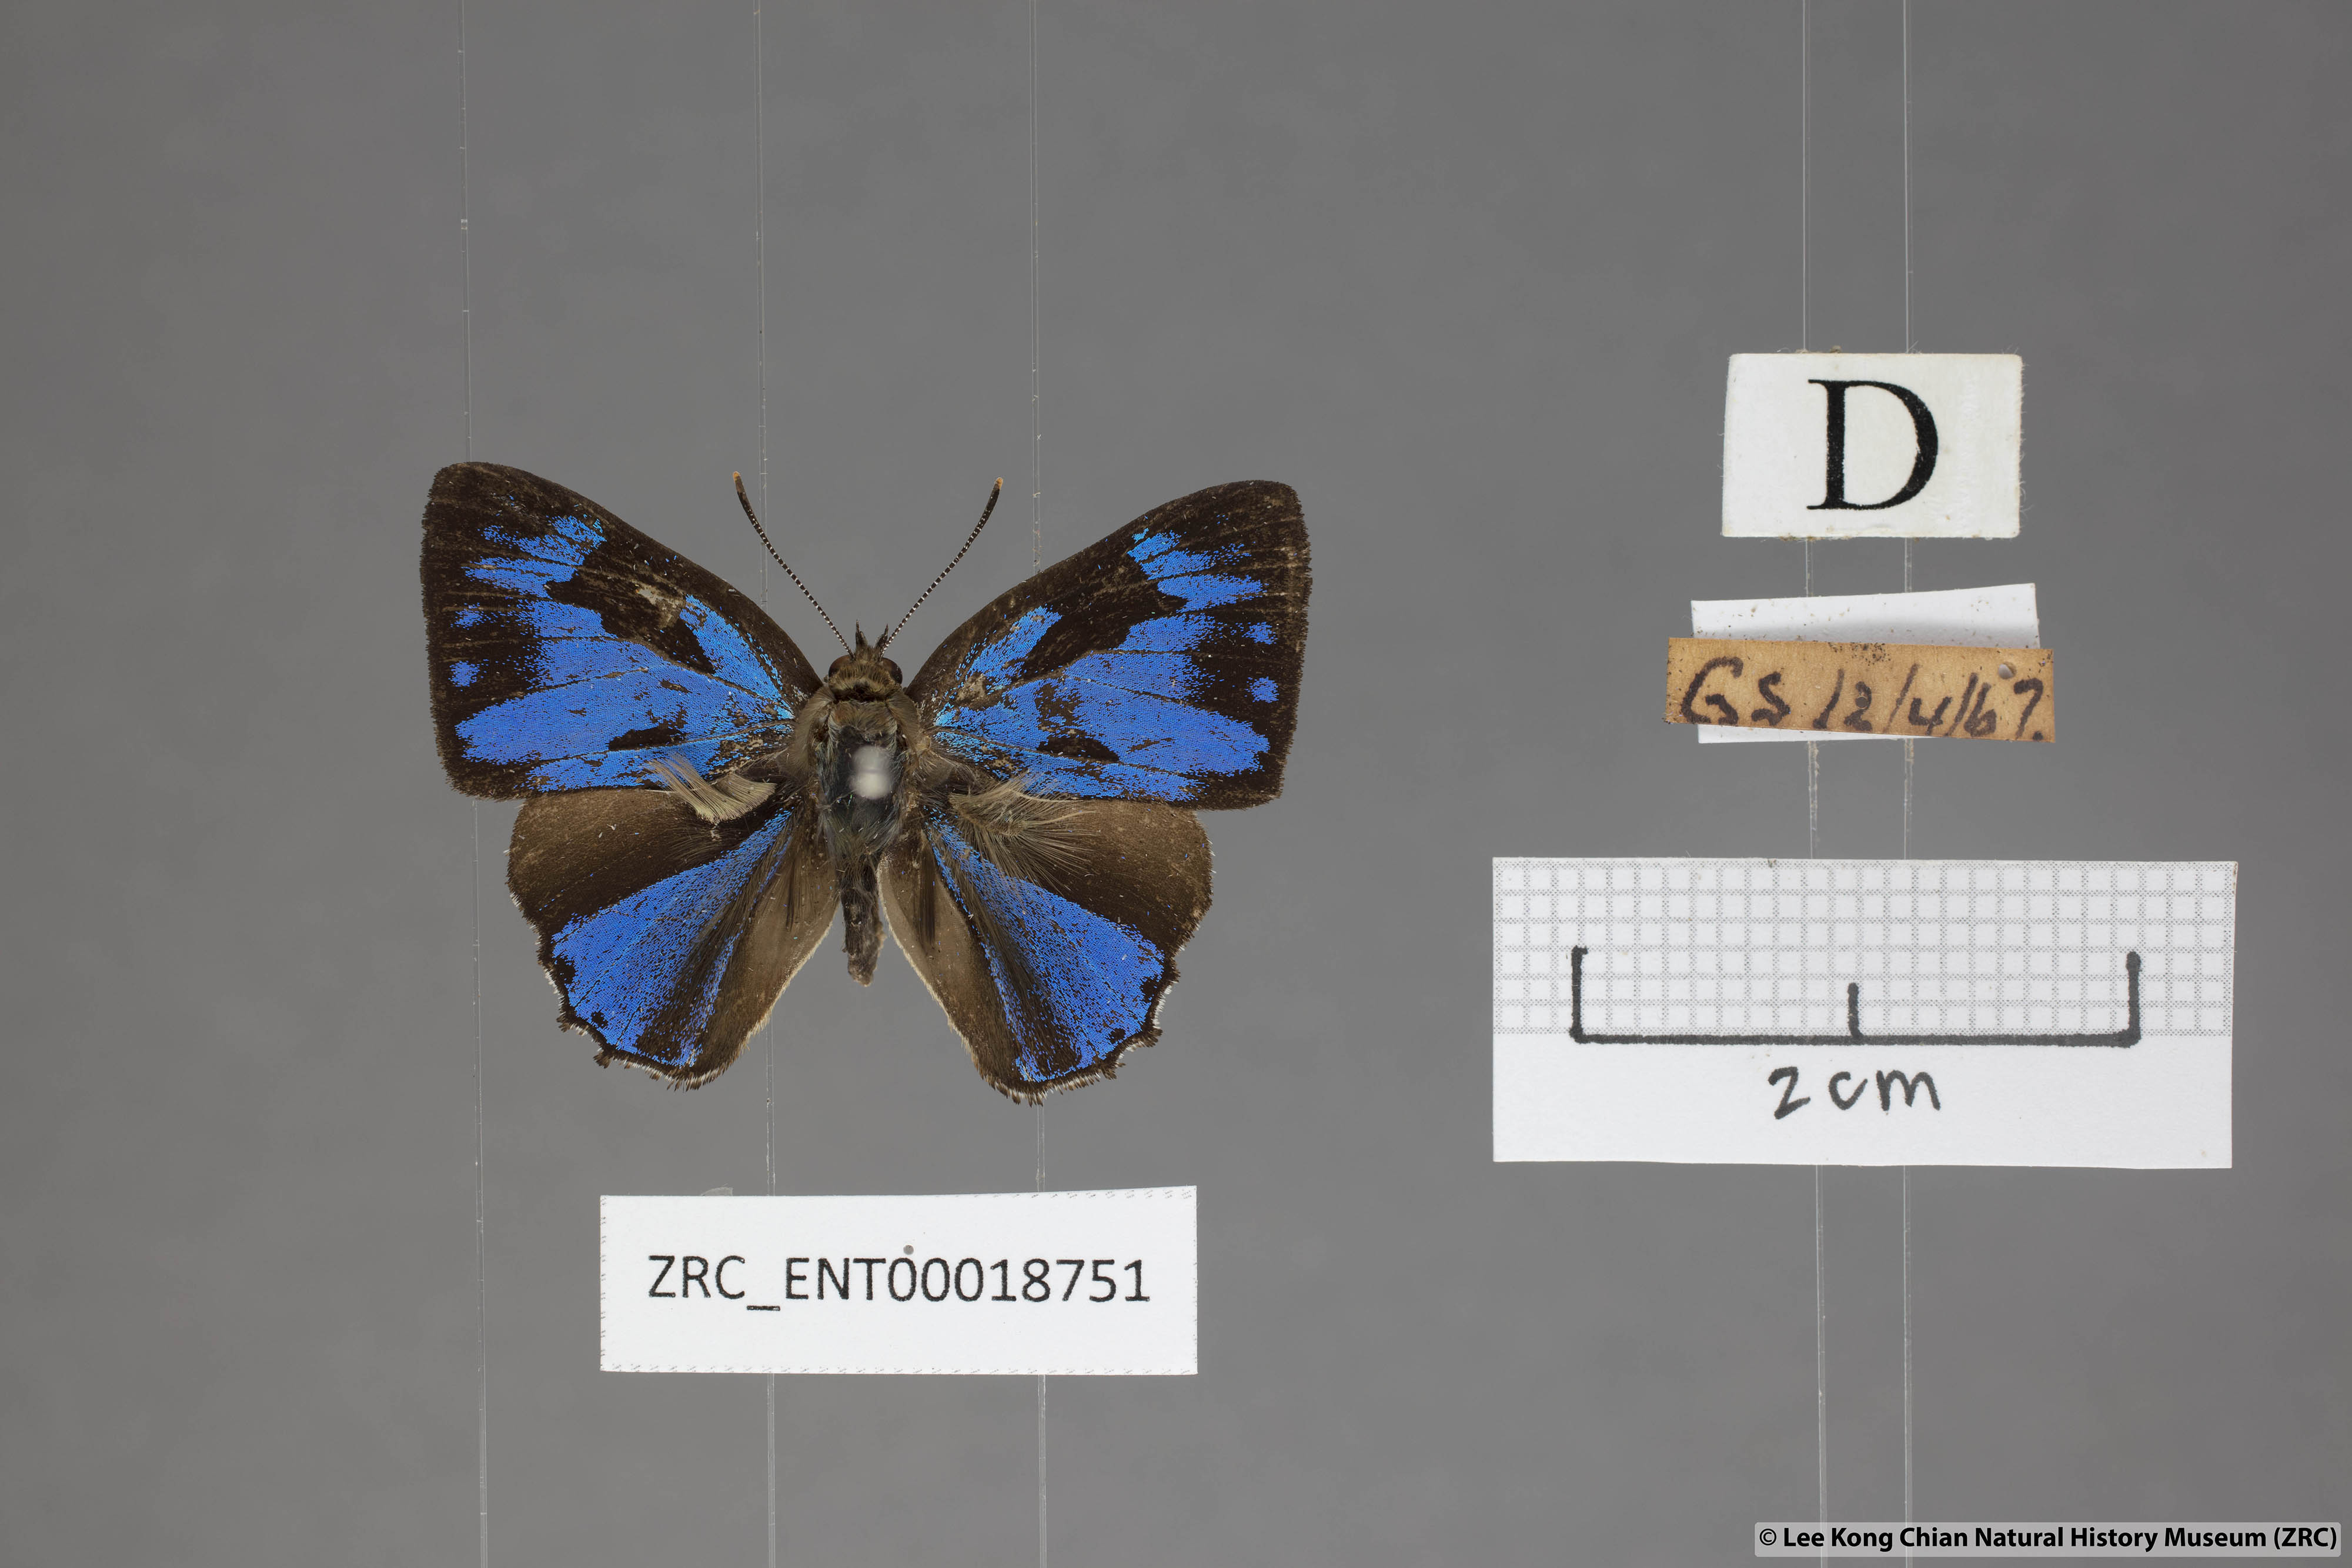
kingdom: Animalia
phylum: Arthropoda
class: Insecta
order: Lepidoptera
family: Lycaenidae
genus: Poritia
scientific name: Poritia erycinoides
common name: Blue gem
